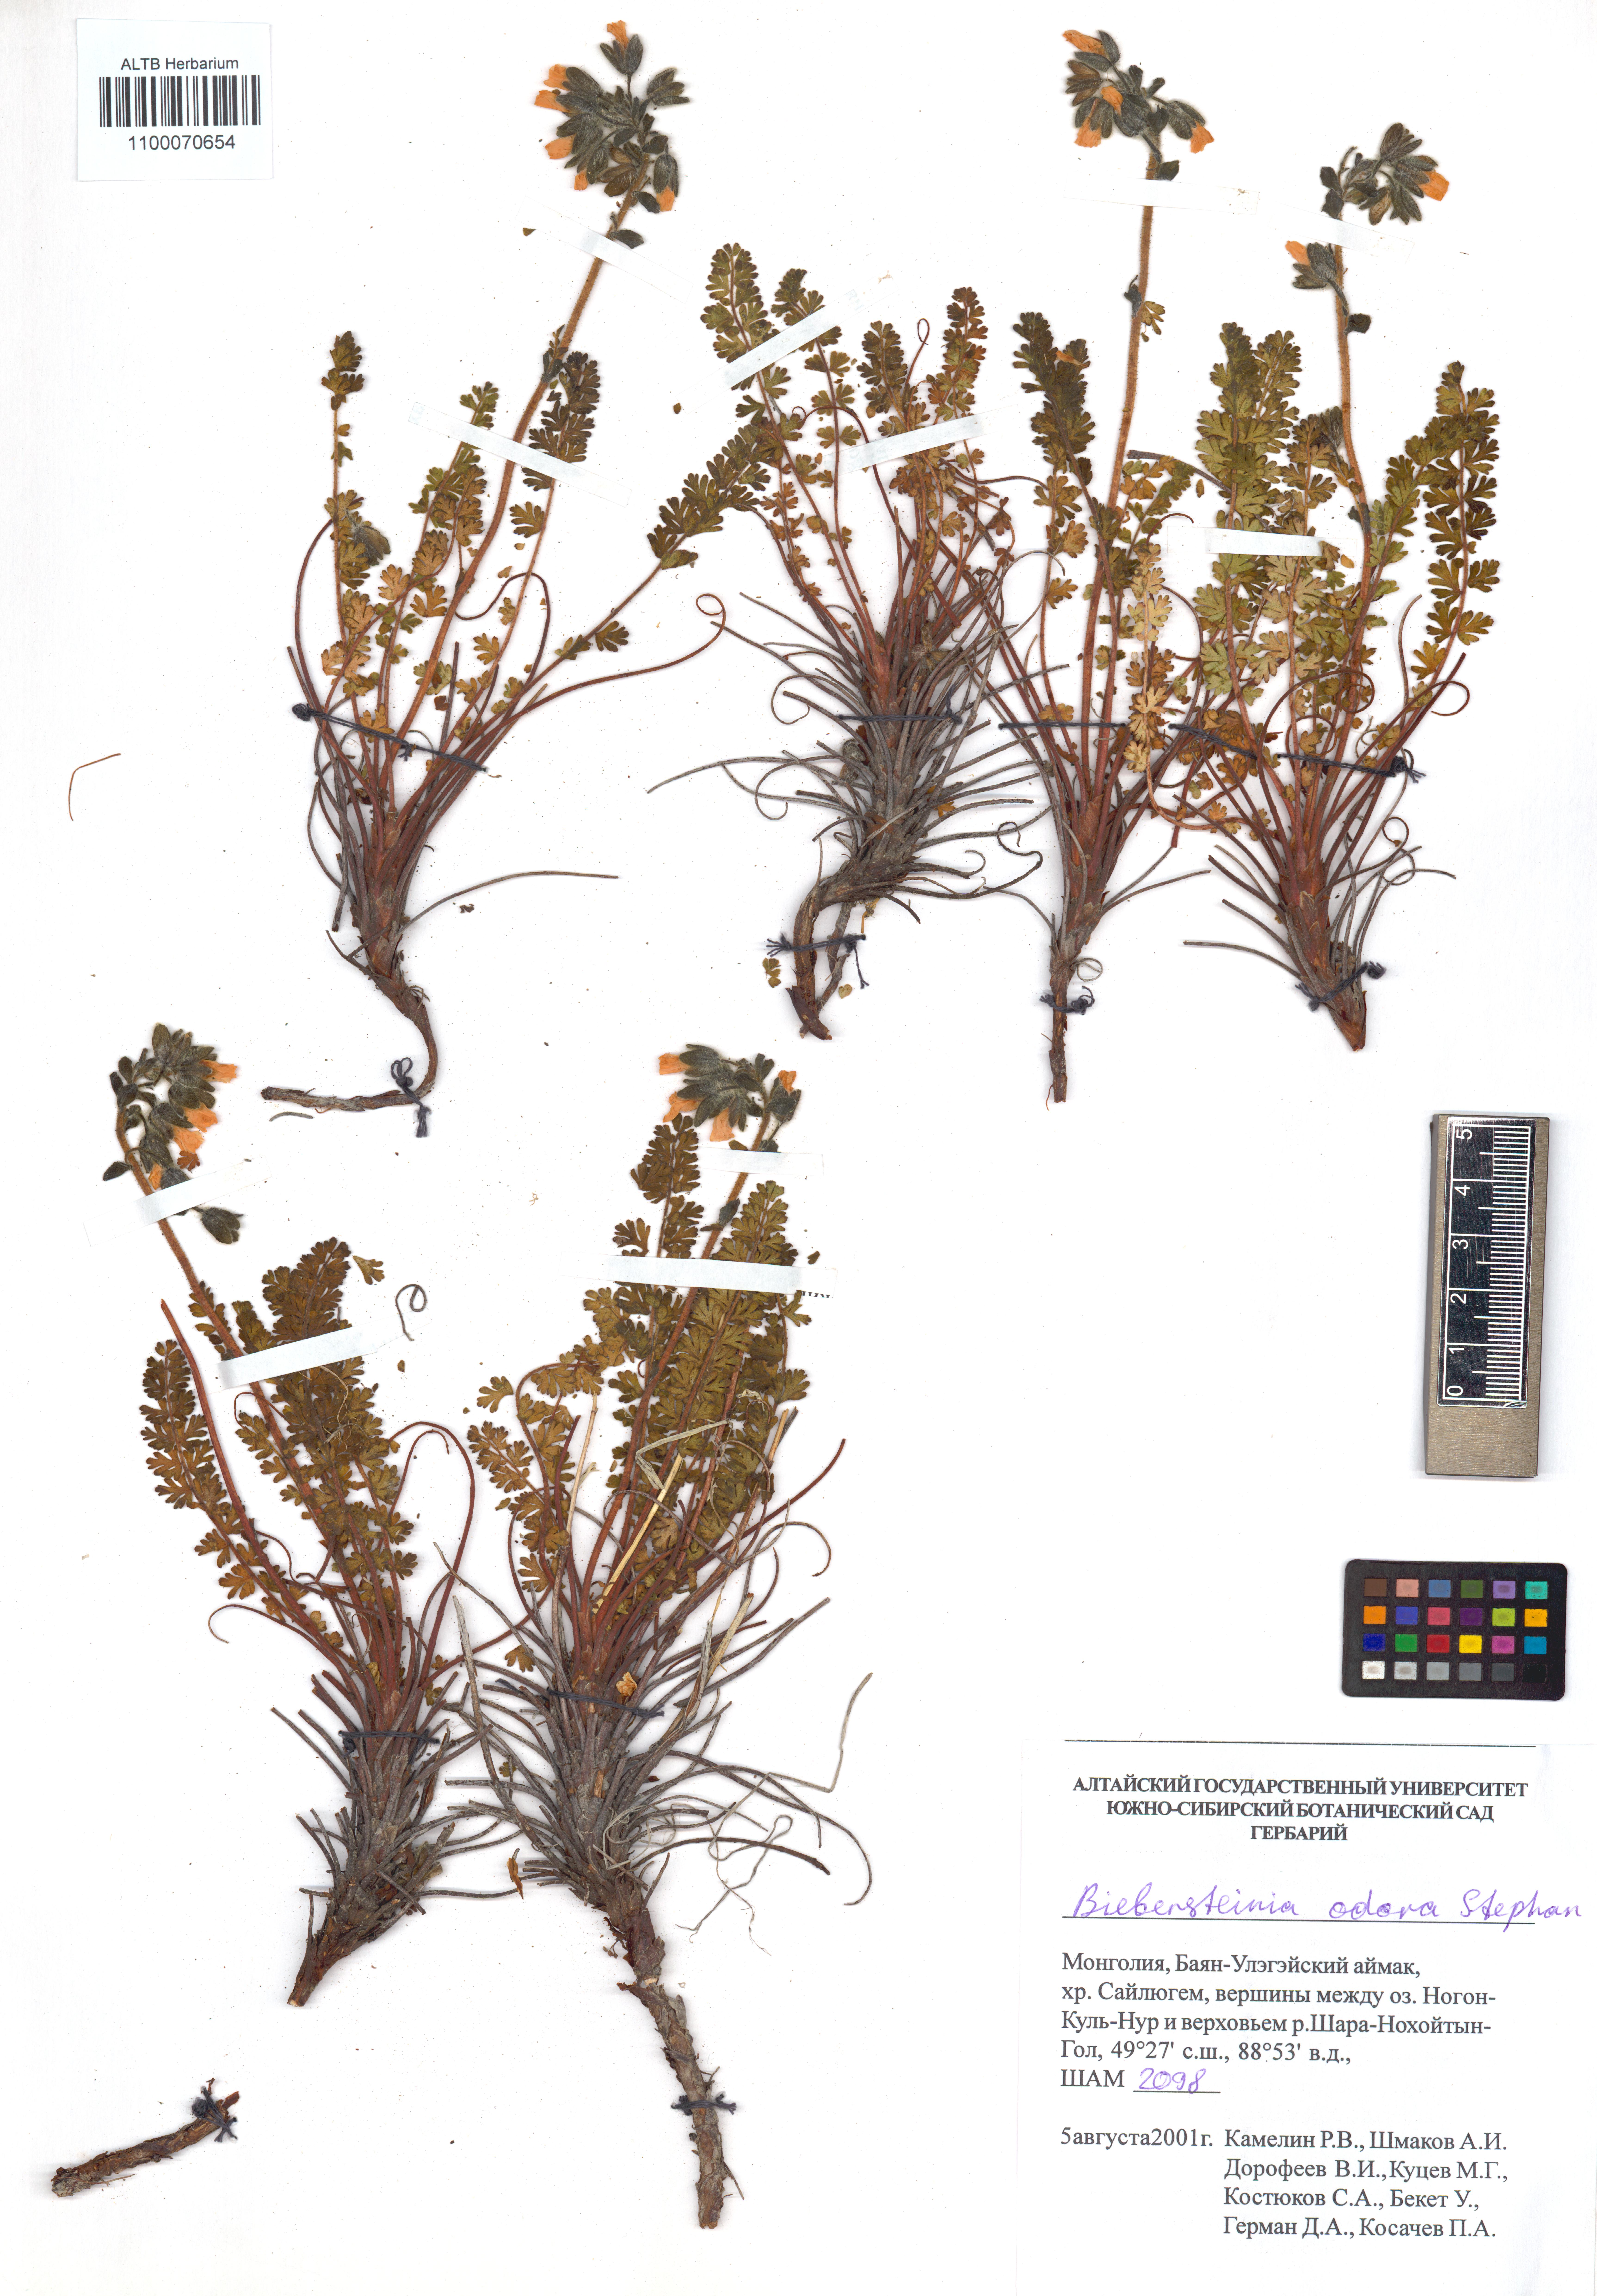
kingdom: Plantae
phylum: Tracheophyta
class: Magnoliopsida
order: Sapindales
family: Biebersteiniaceae
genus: Biebersteinia
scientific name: Biebersteinia odora
